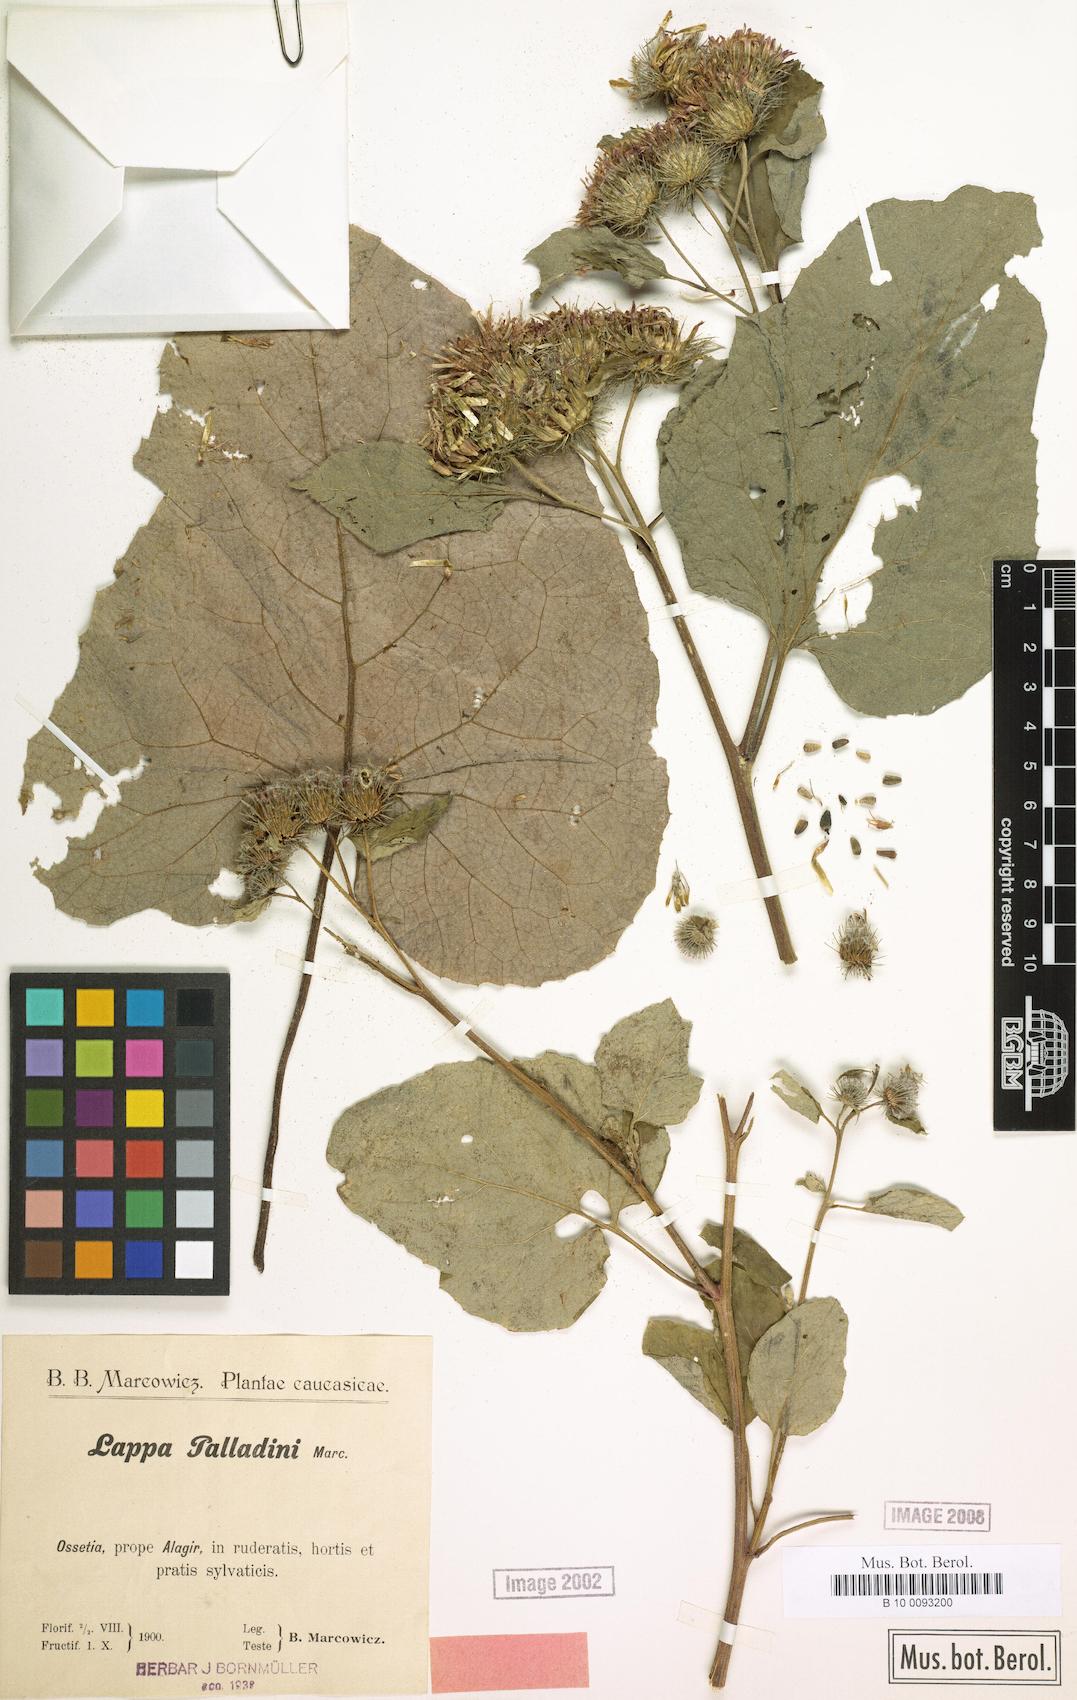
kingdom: Plantae
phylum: Tracheophyta
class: Magnoliopsida
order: Asterales
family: Asteraceae
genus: Arctium
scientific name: Arctium palladini
